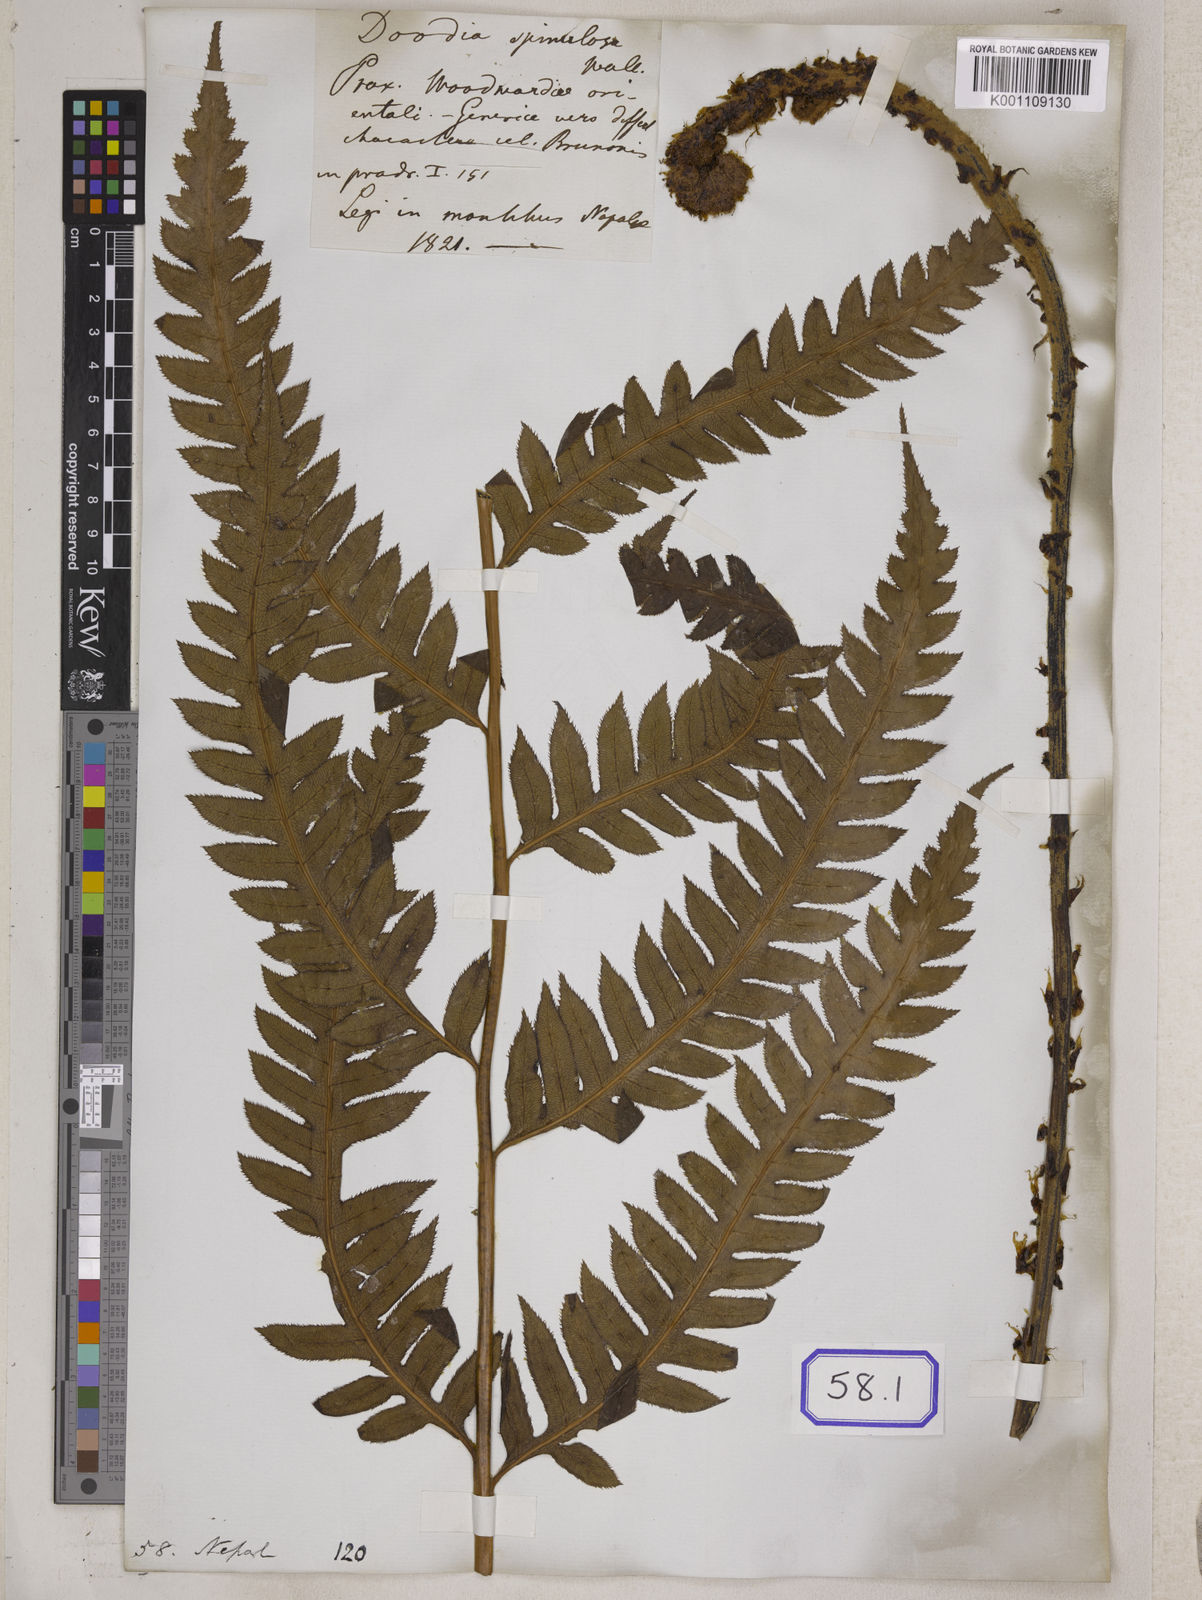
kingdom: Plantae
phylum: Tracheophyta
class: Polypodiopsida
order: Polypodiales
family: Blechnaceae
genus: Woodwardia
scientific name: Woodwardia
